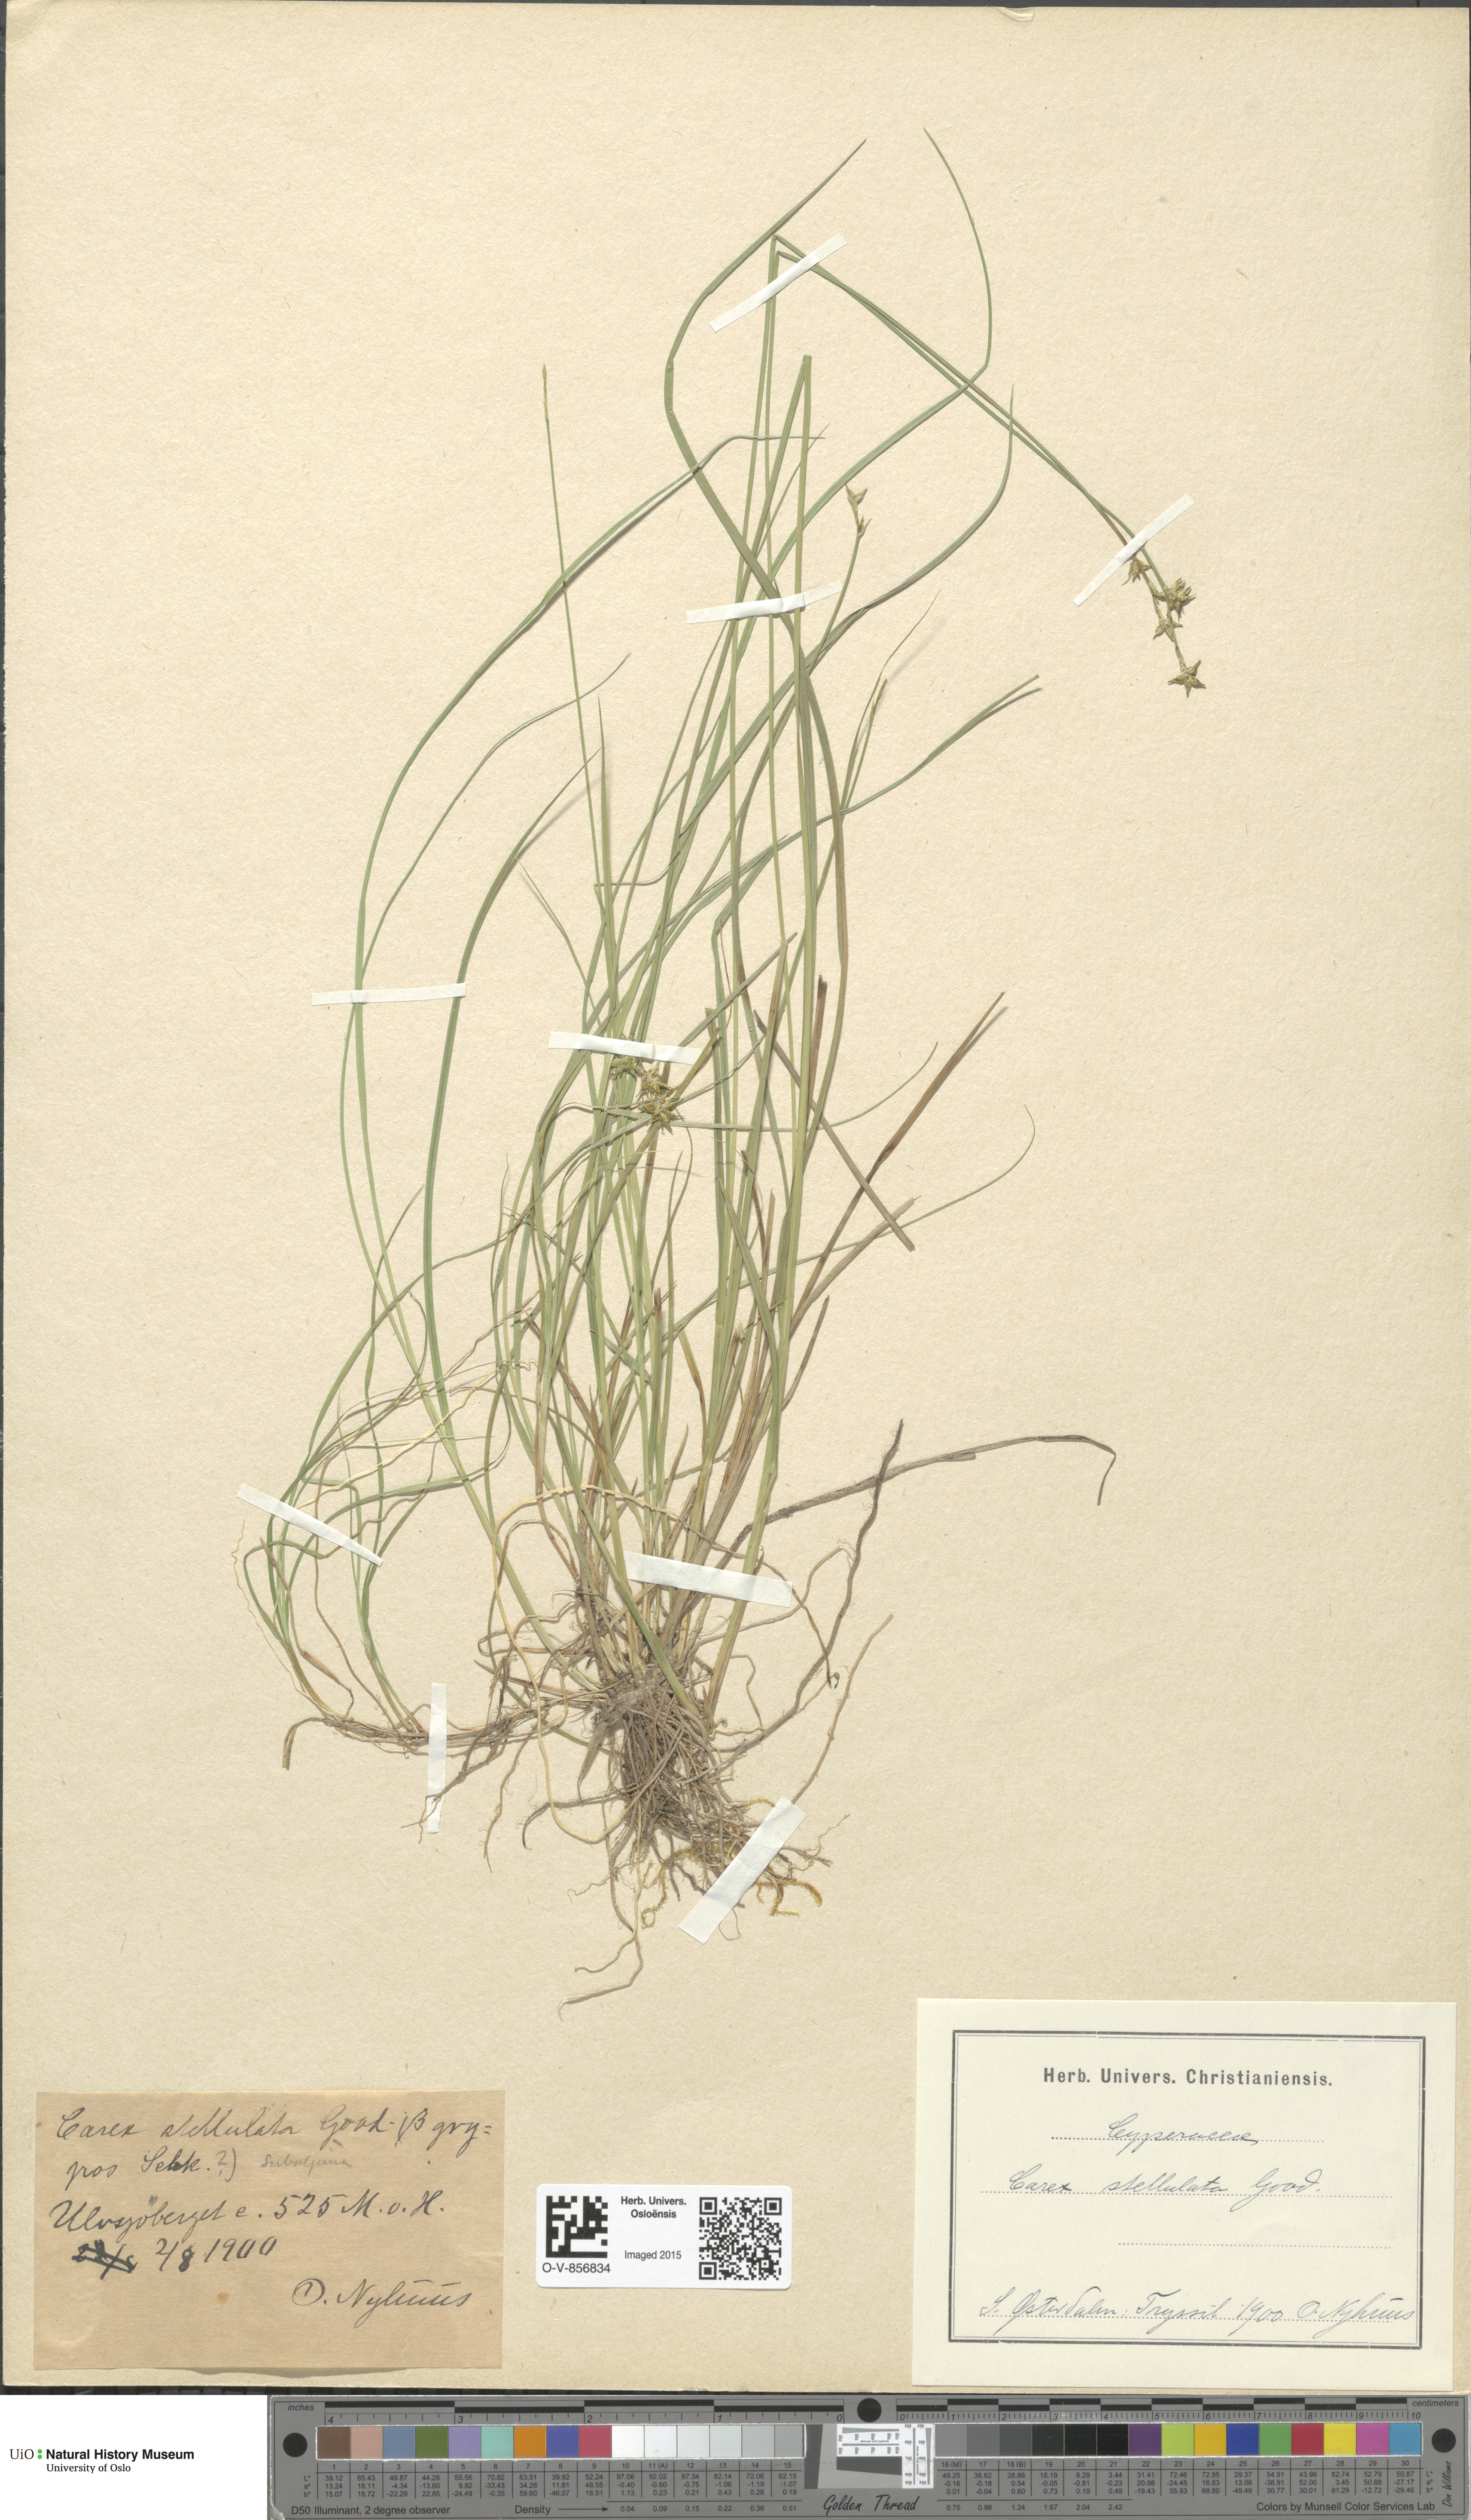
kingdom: Plantae
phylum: Tracheophyta
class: Liliopsida
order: Poales
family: Cyperaceae
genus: Carex
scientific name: Carex echinata
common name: Star sedge
